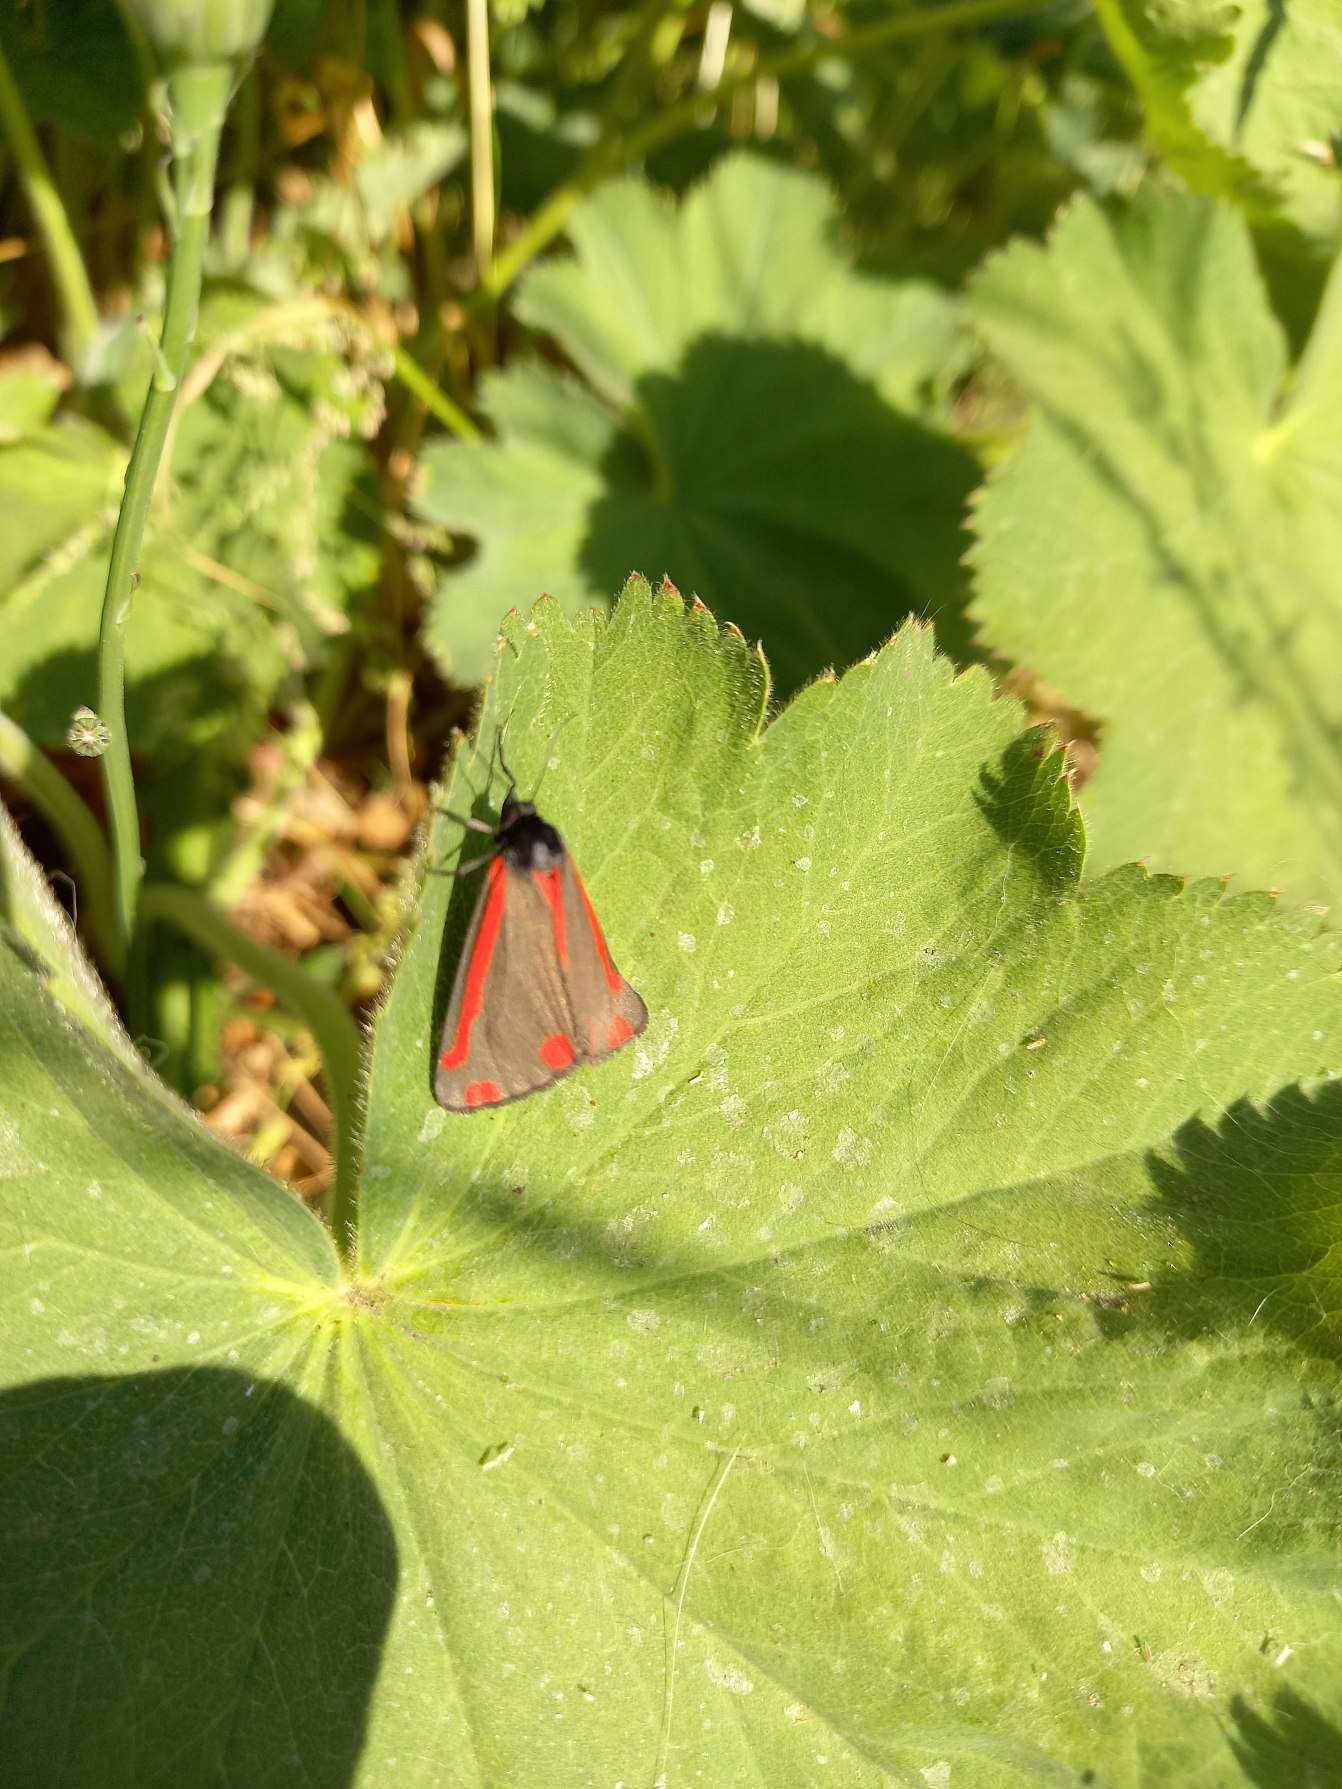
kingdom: Animalia
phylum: Arthropoda
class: Insecta
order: Lepidoptera
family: Erebidae
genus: Tyria
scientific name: Tyria jacobaeae
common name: Blodplet
